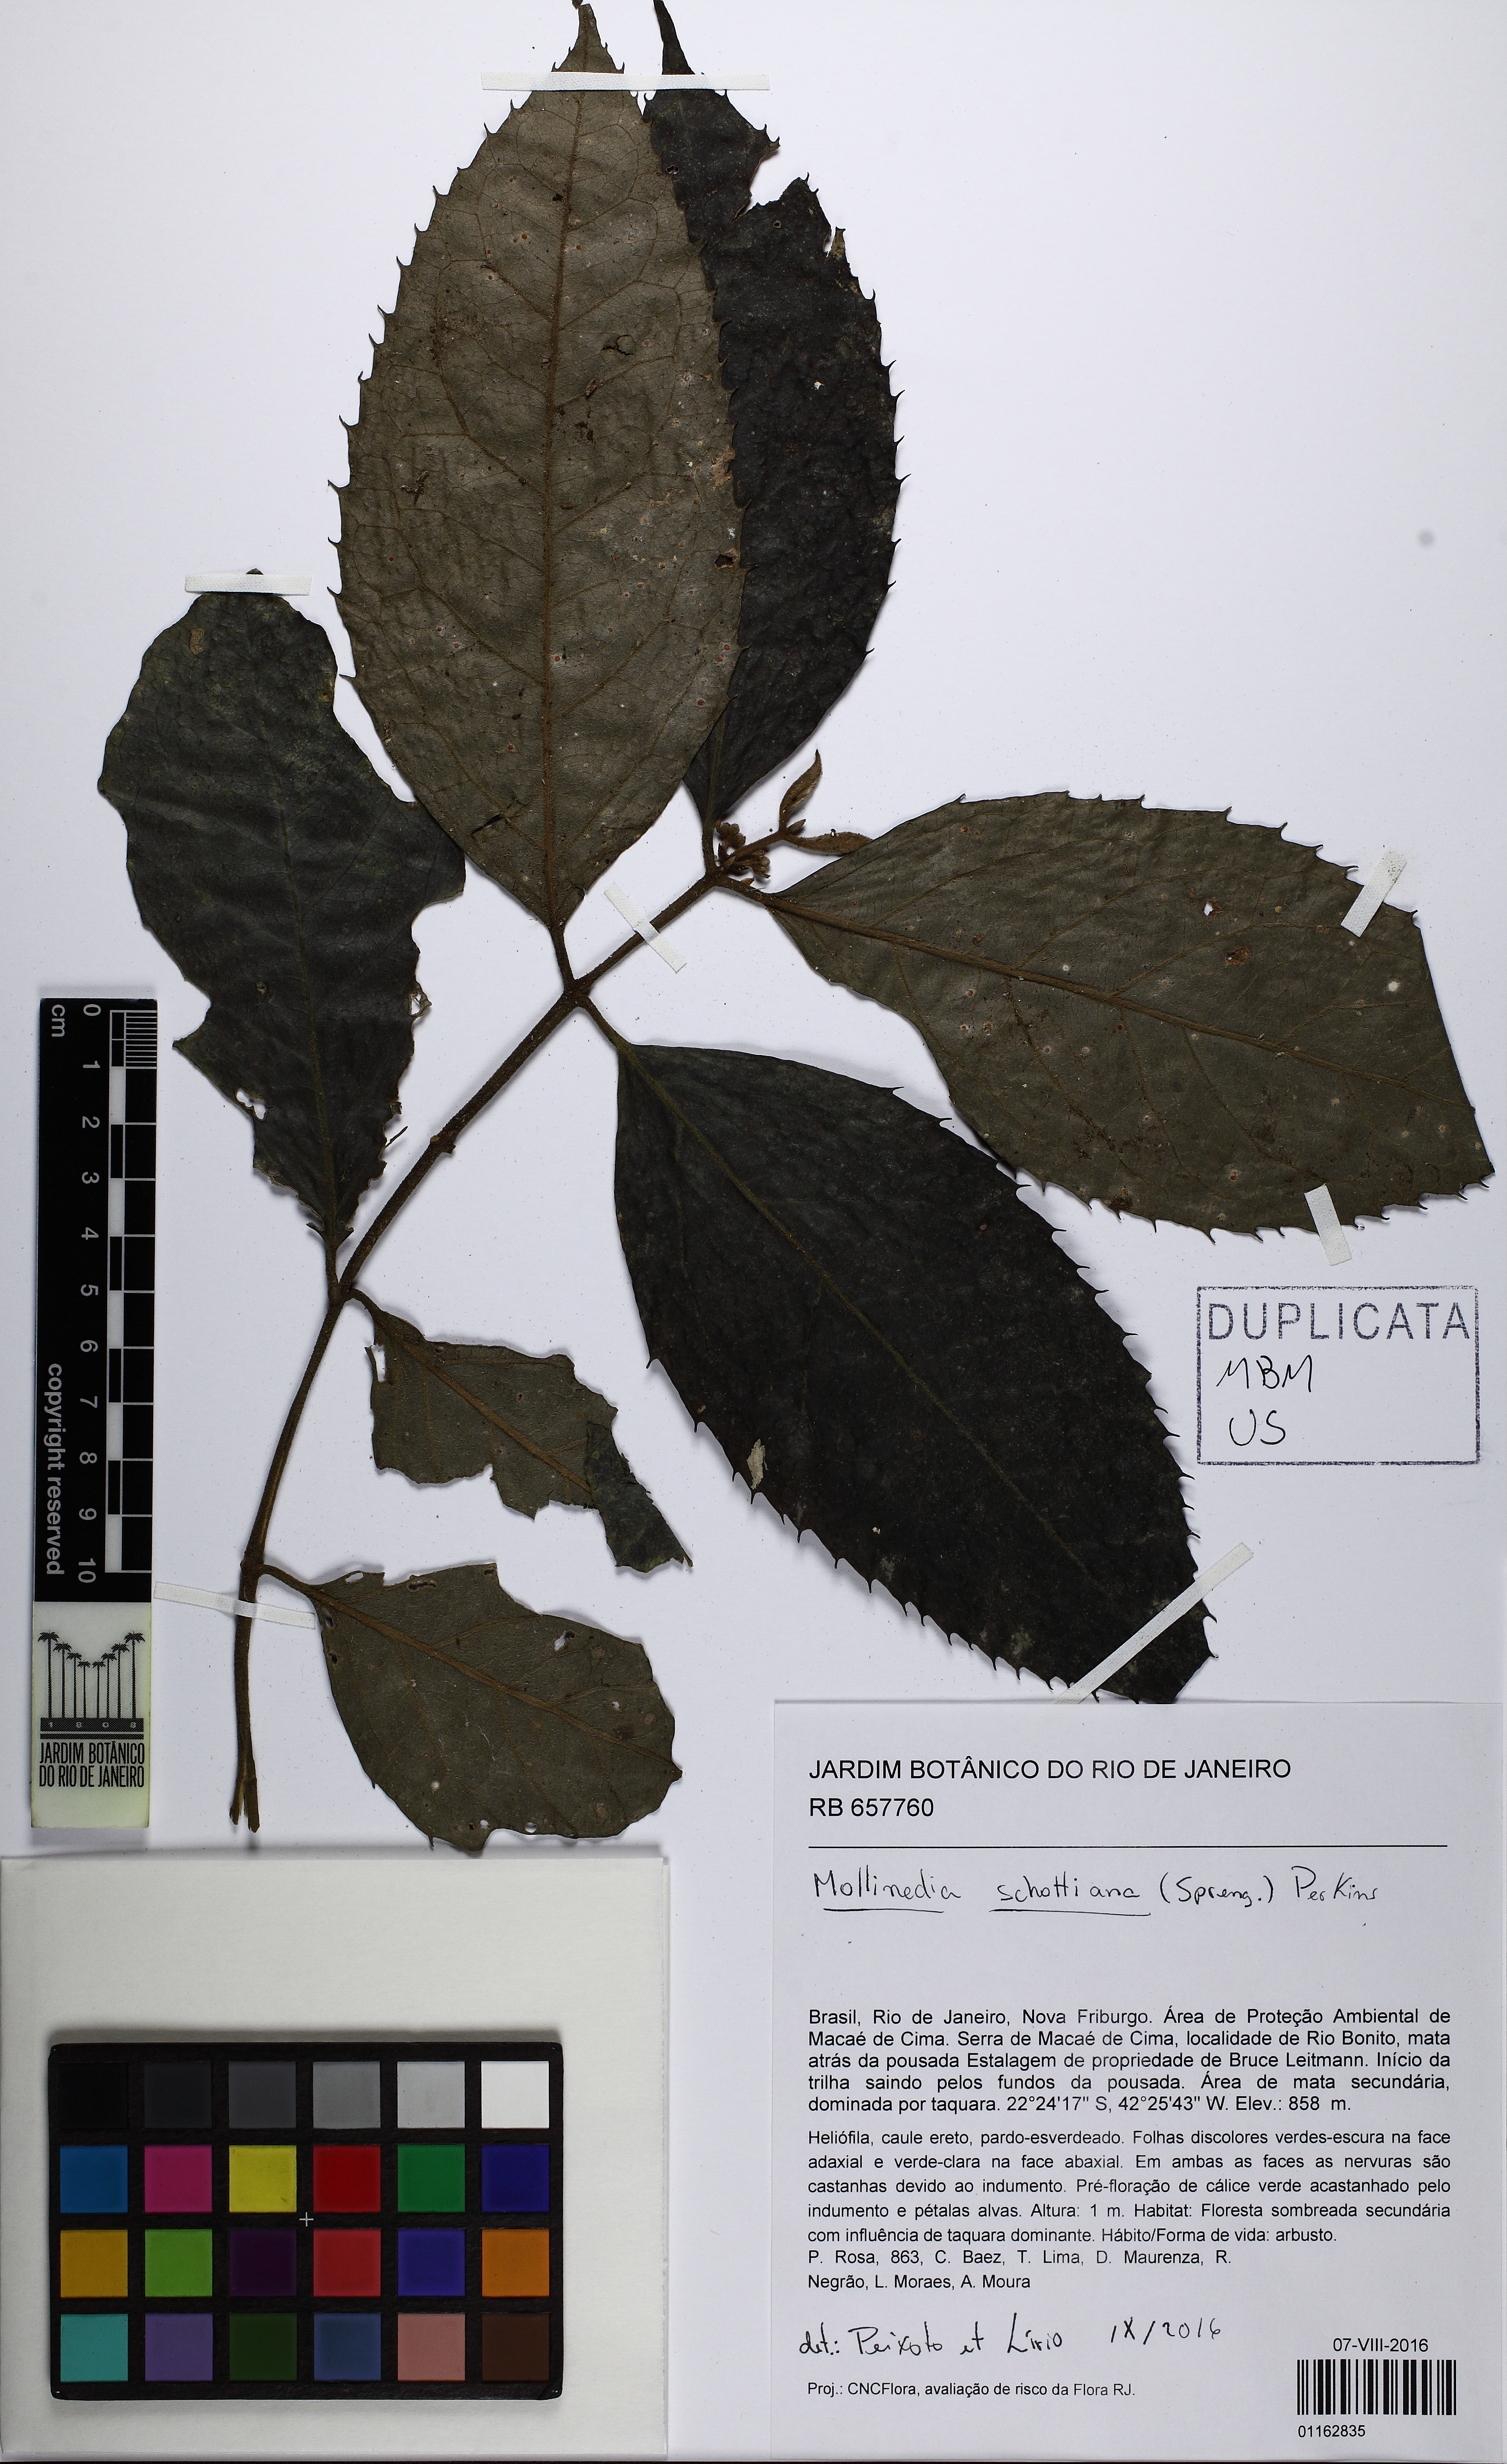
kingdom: Plantae
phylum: Tracheophyta
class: Magnoliopsida
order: Laurales
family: Monimiaceae
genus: Mollinedia
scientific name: Mollinedia umbellata
